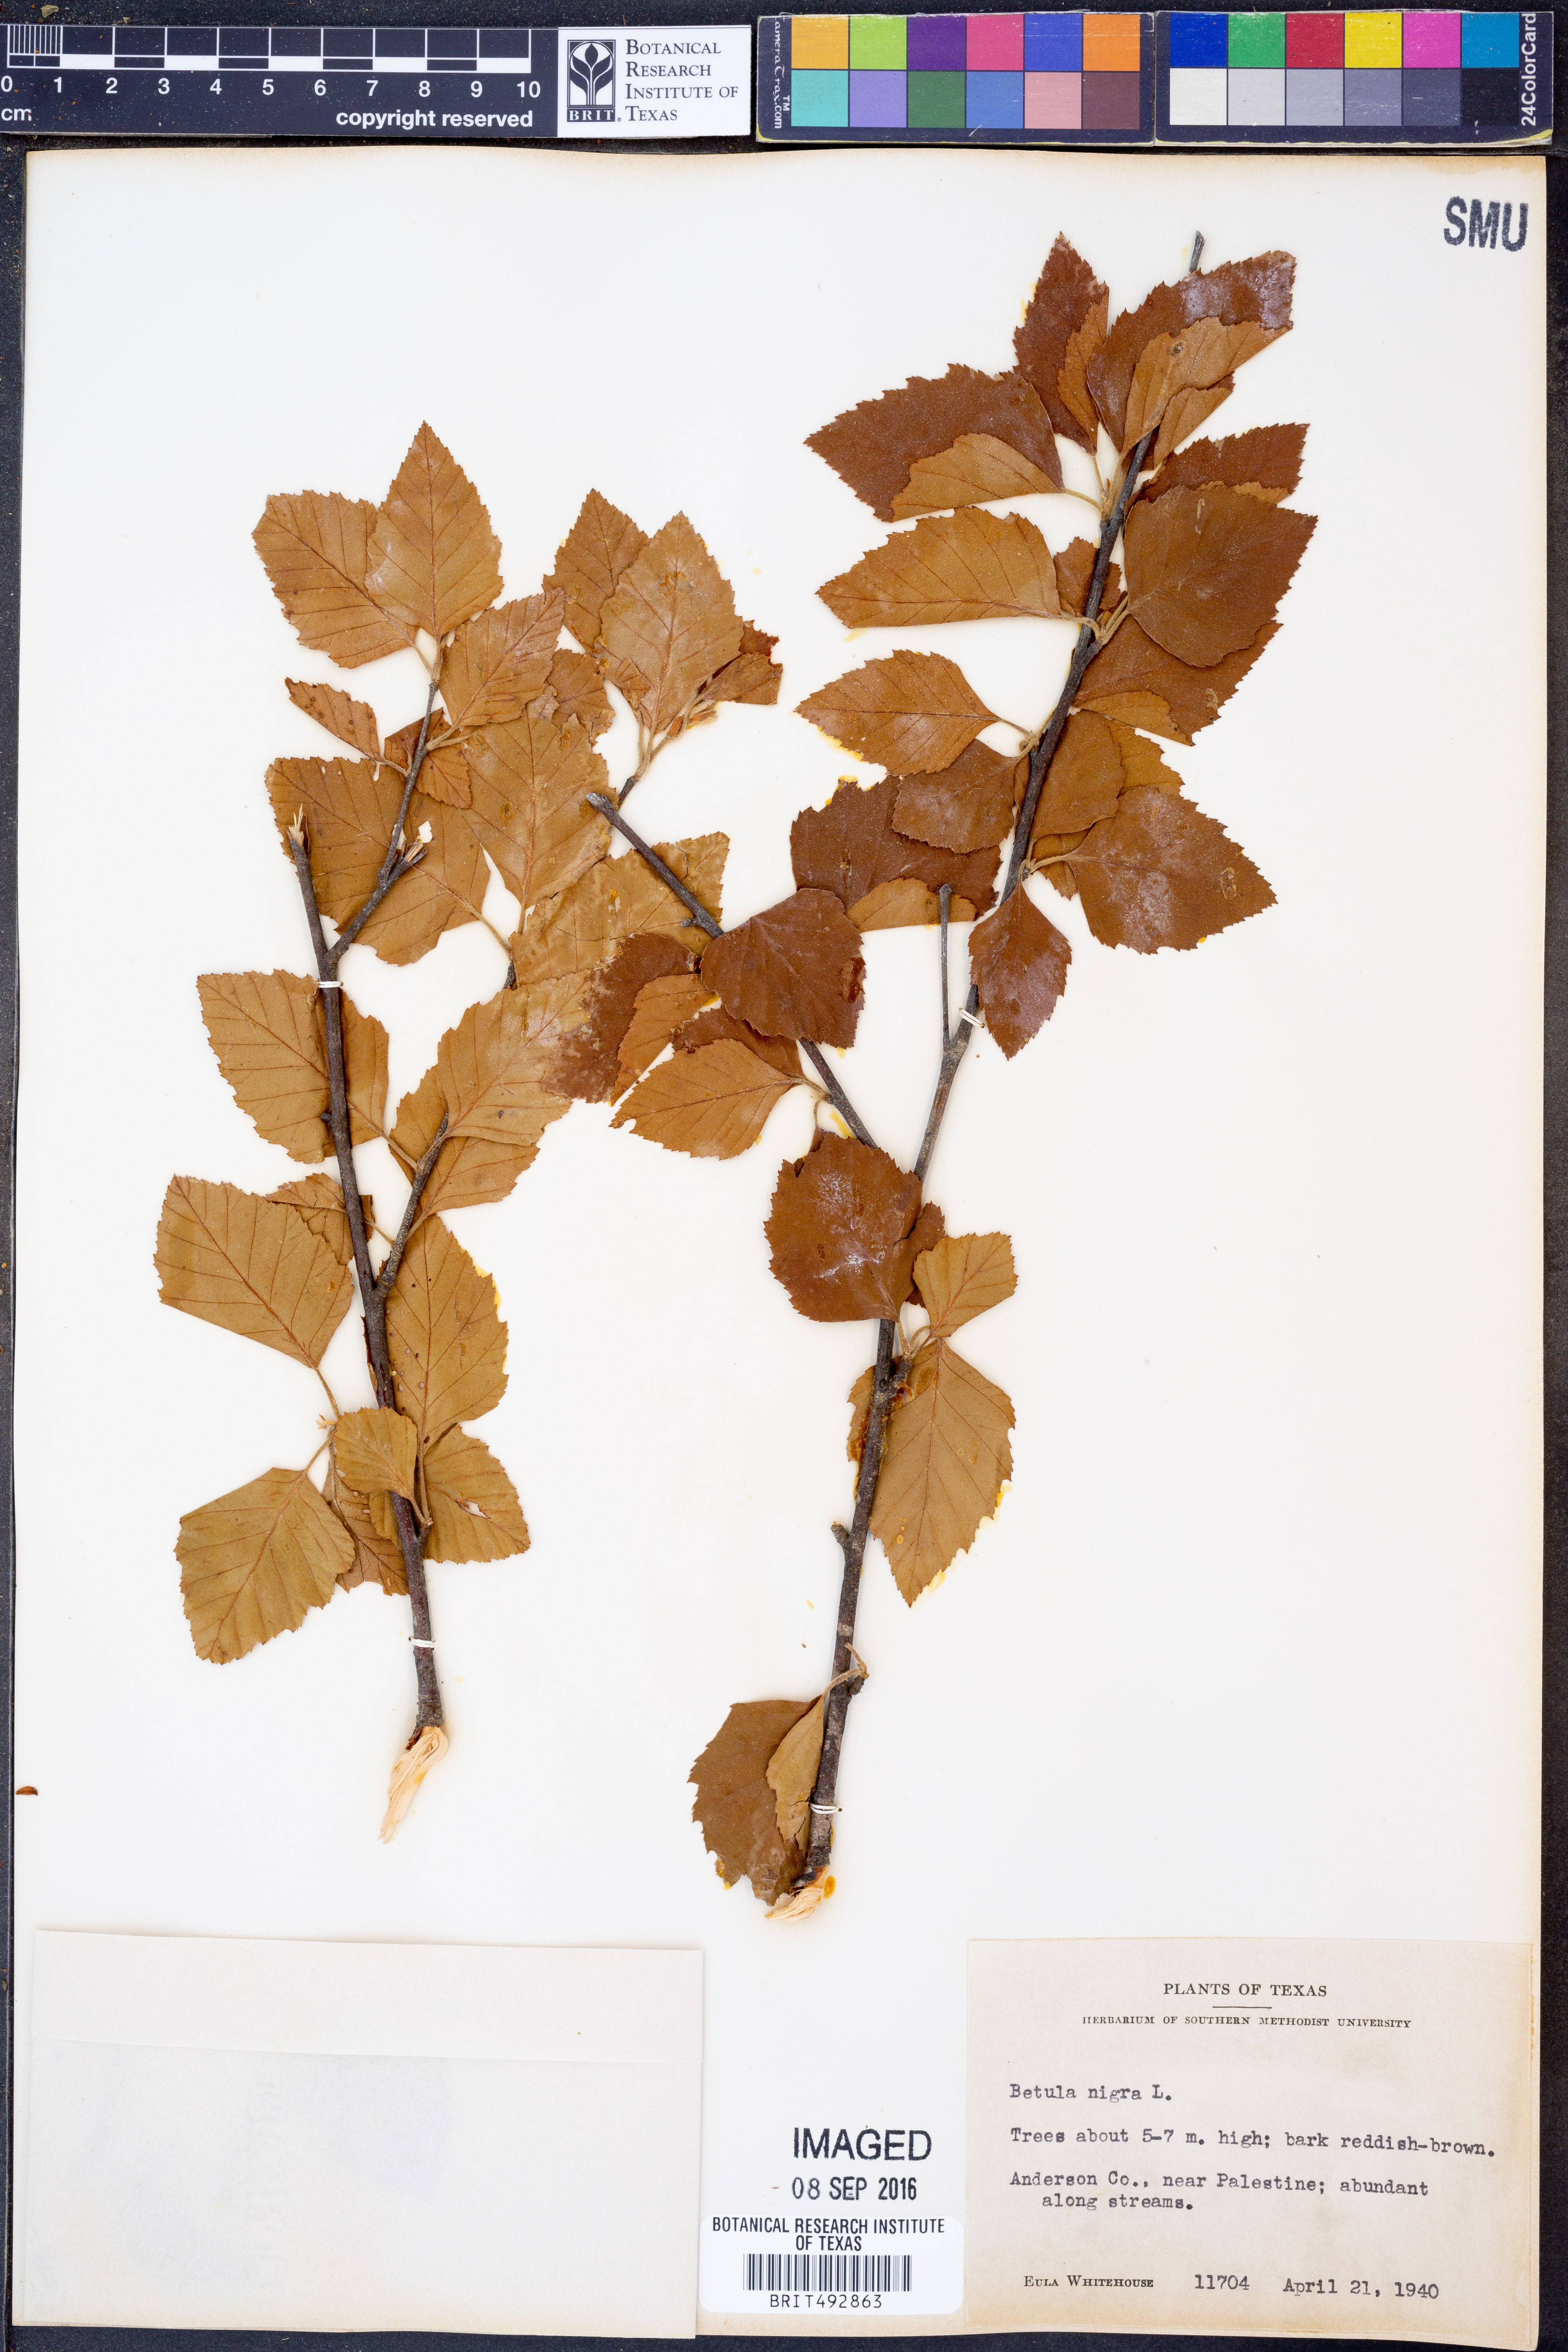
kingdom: Plantae
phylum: Tracheophyta
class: Magnoliopsida
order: Fagales
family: Betulaceae
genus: Betula
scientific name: Betula nigra
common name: Black birch
